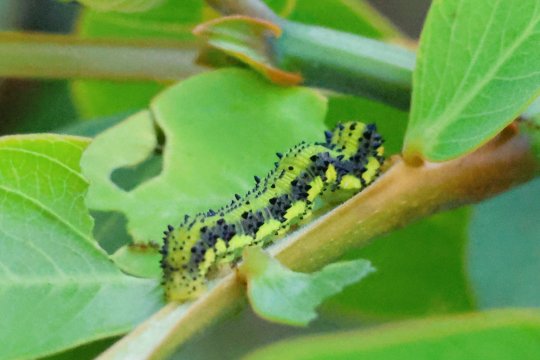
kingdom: Animalia
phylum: Arthropoda
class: Insecta
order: Lepidoptera
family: Pieridae
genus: Phoebis
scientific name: Phoebis philea
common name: Orange-barred Sulphur
